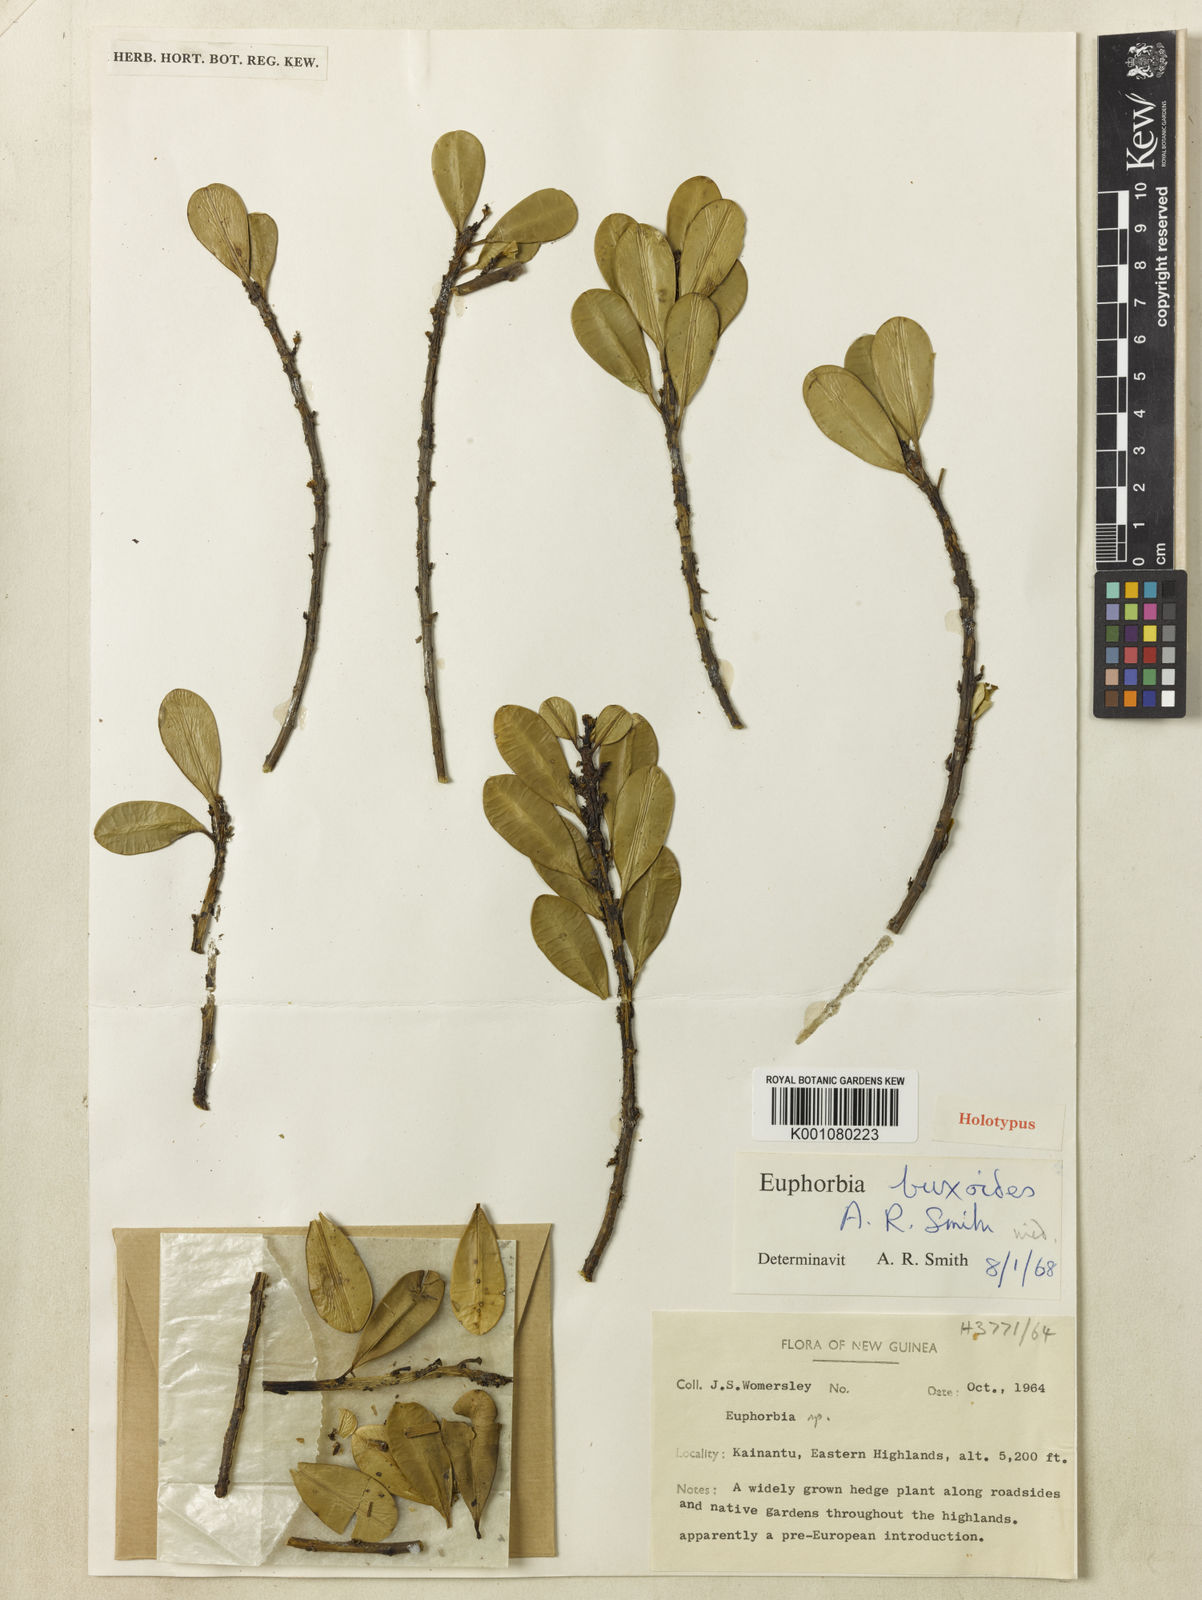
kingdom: Plantae
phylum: Tracheophyta
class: Magnoliopsida
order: Malpighiales
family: Euphorbiaceae
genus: Euphorbia
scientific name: Euphorbia buxoides
